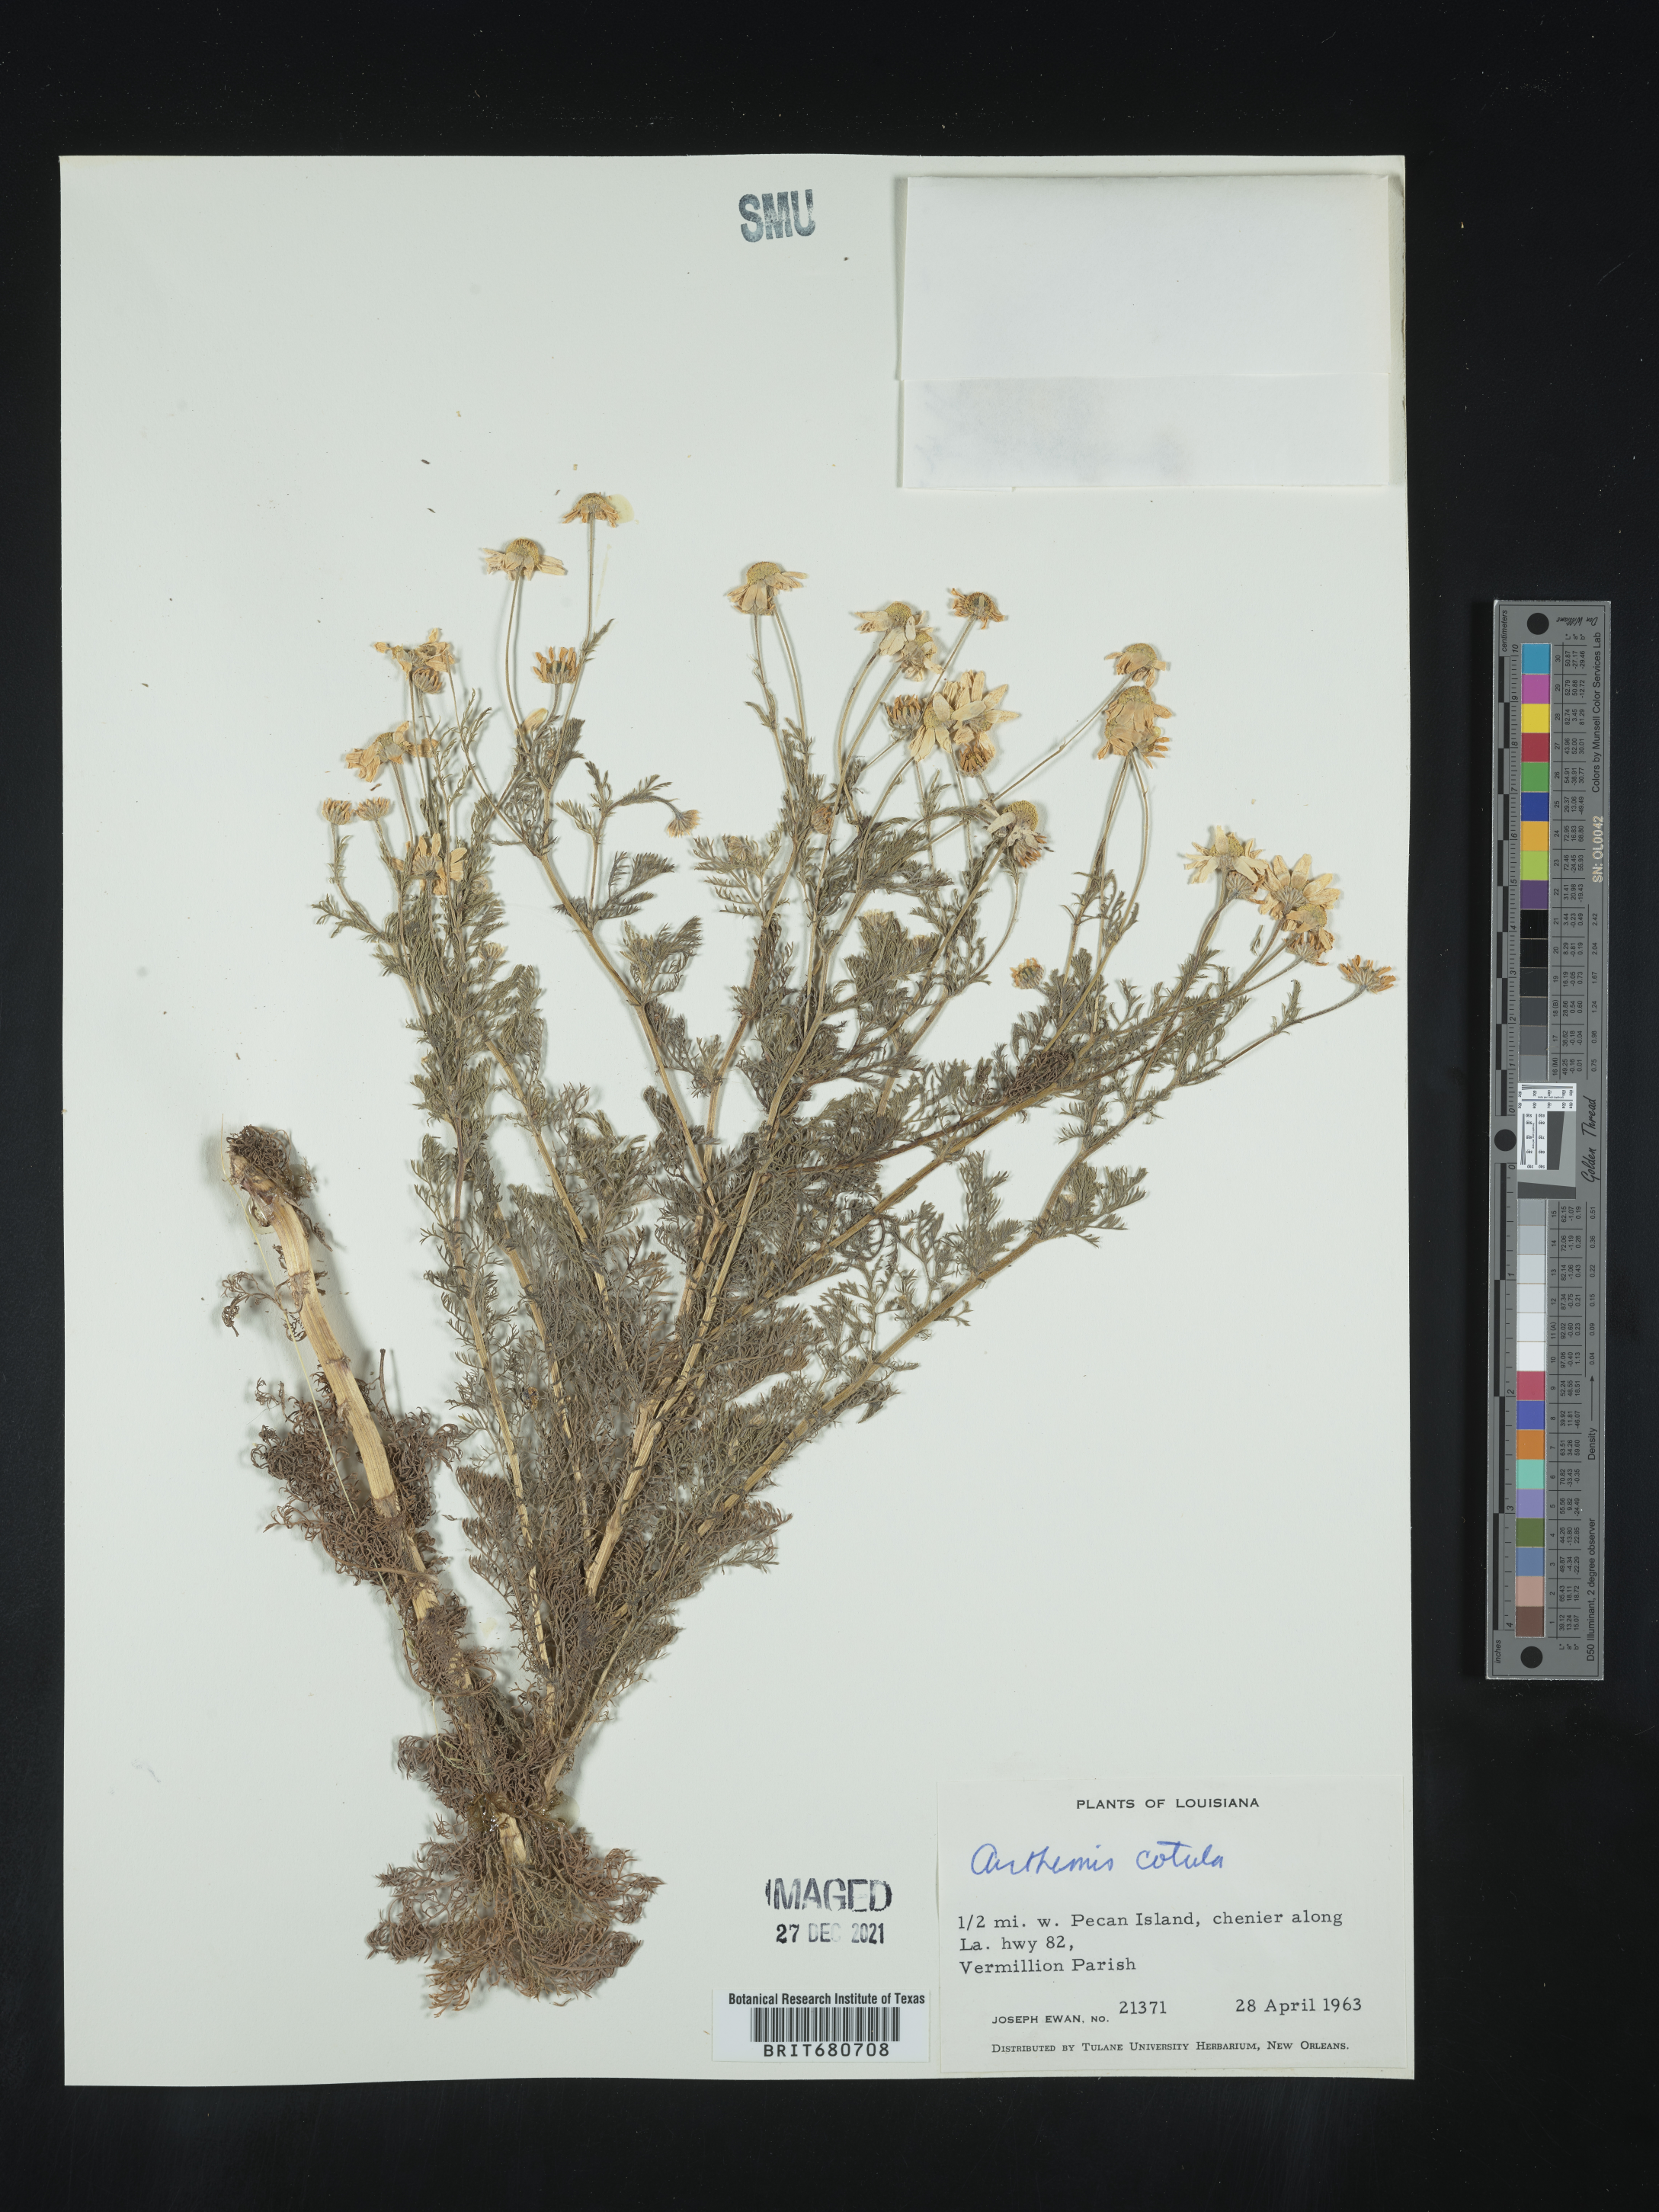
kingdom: Plantae
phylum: Tracheophyta
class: Magnoliopsida
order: Asterales
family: Asteraceae
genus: Anthemis
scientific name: Anthemis cotula
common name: Stinking chamomile
